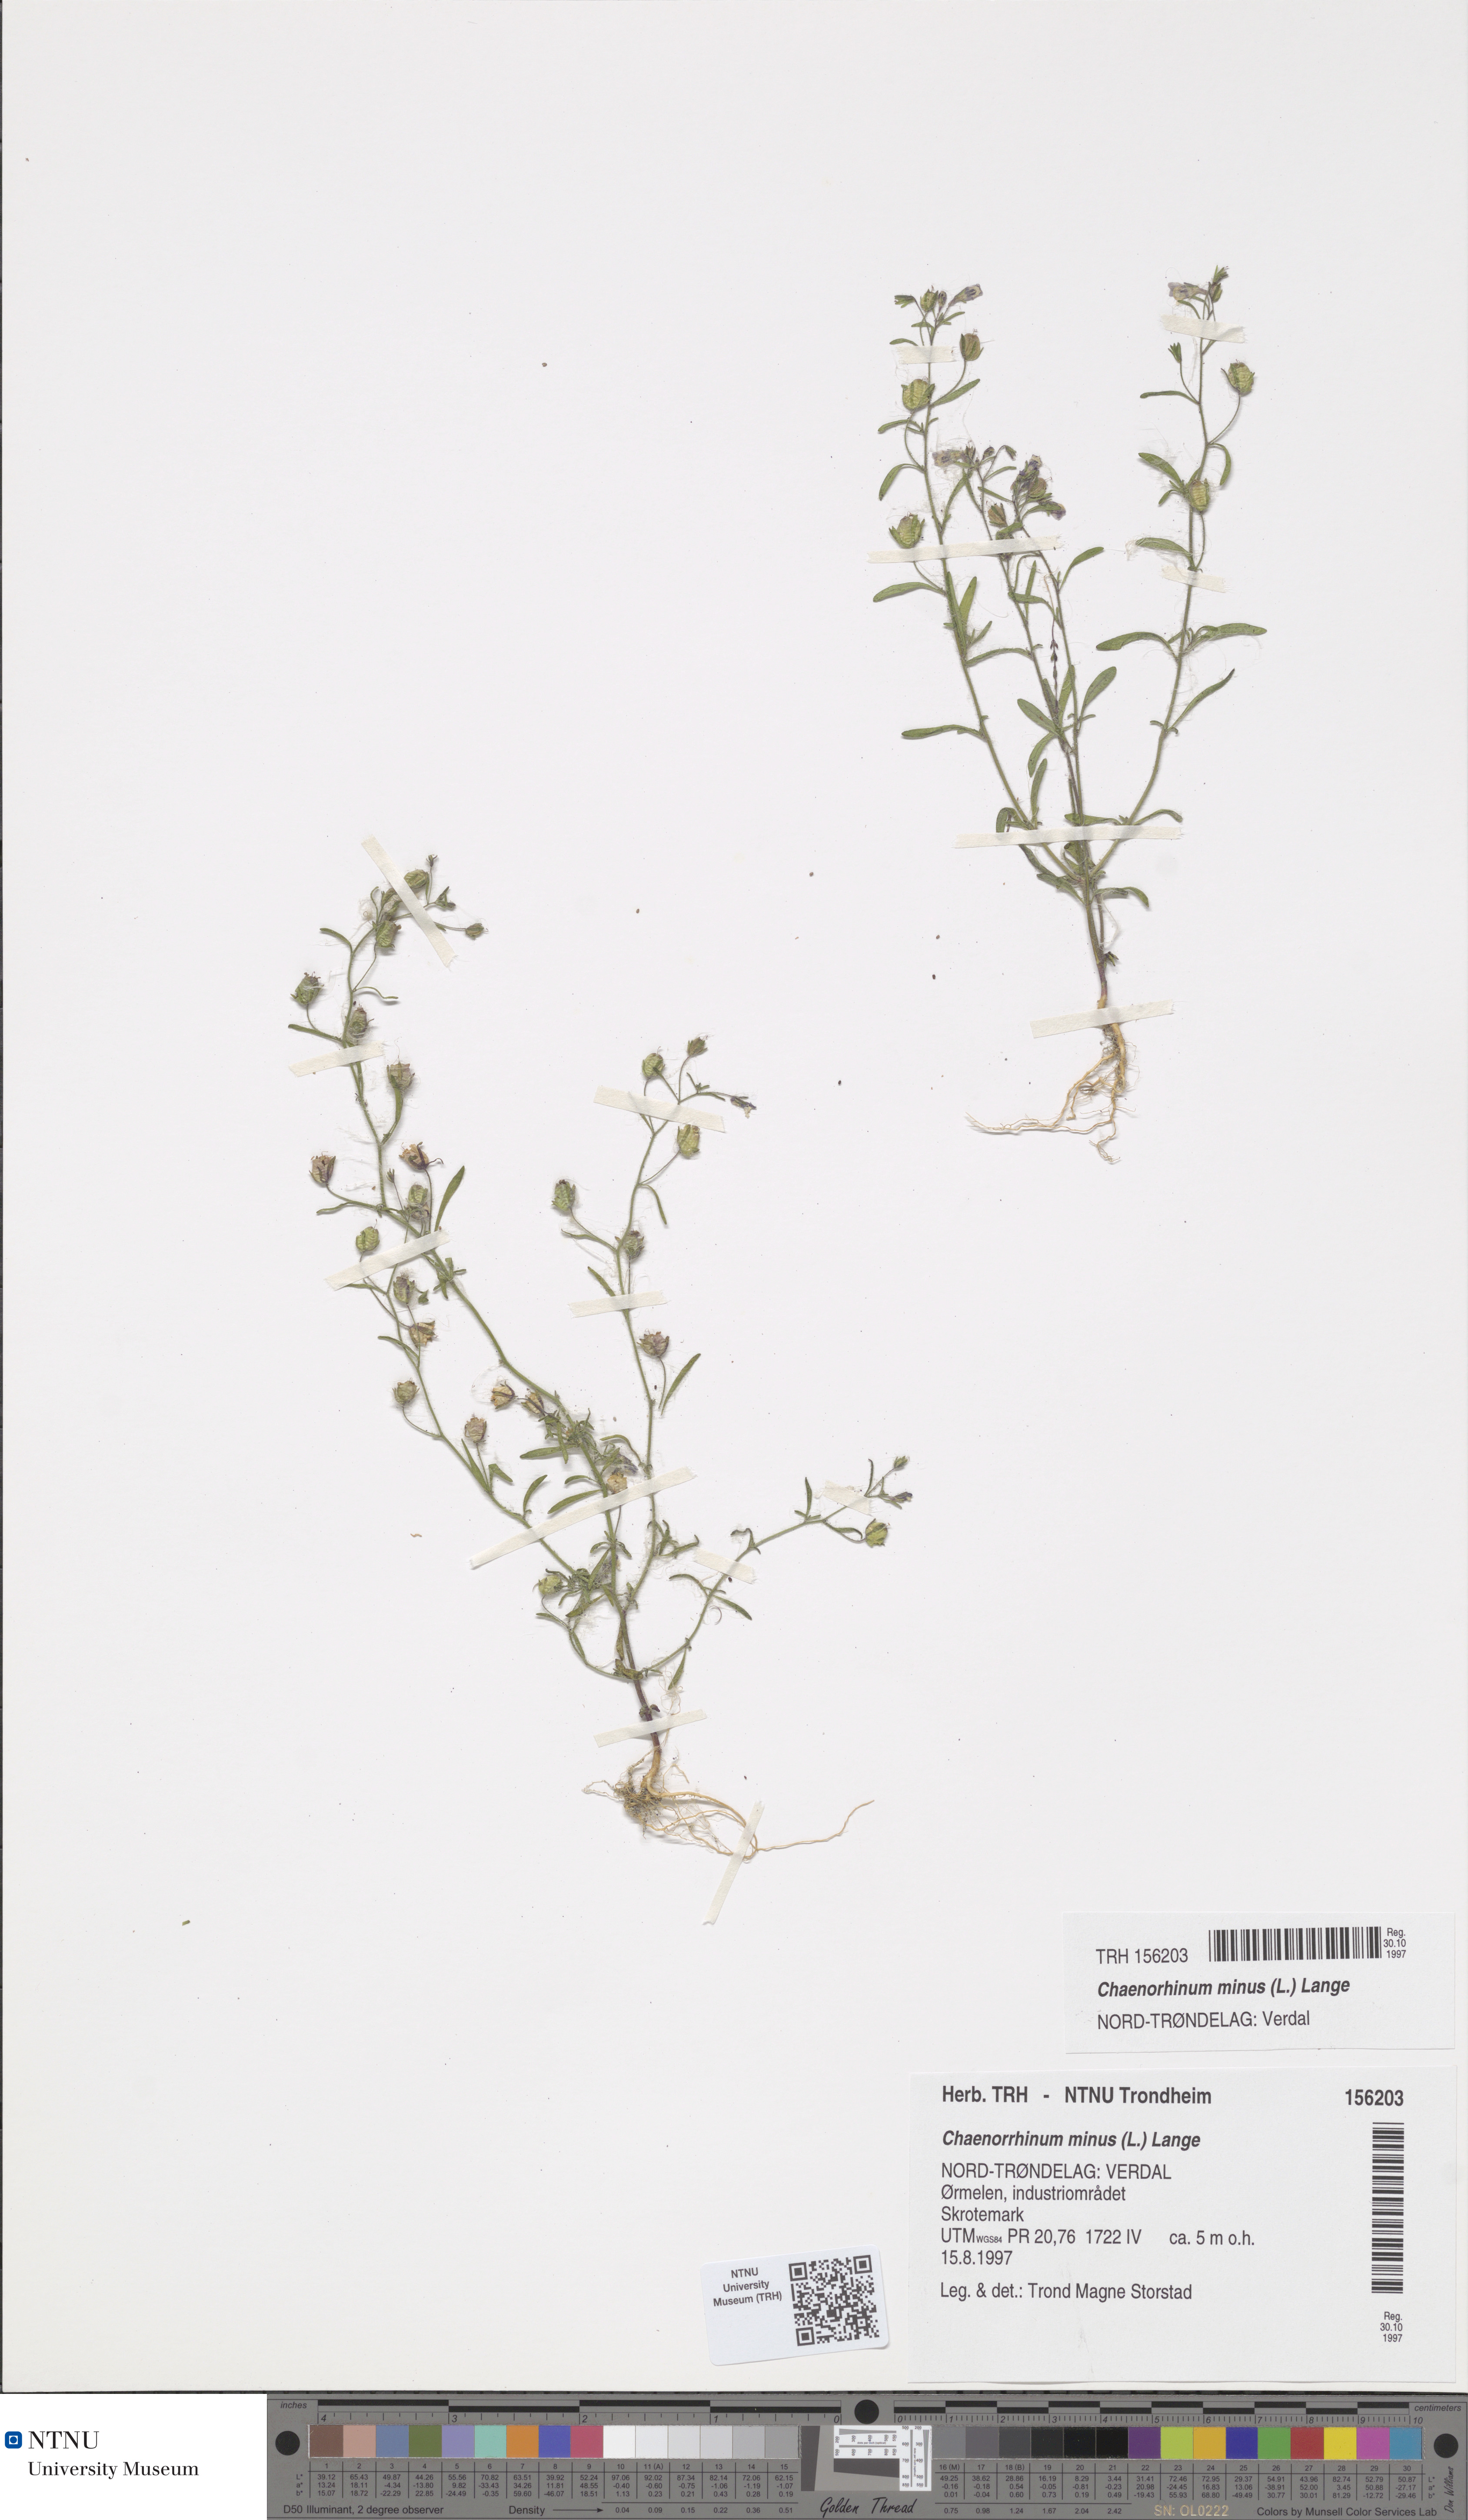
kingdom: Plantae
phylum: Tracheophyta
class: Magnoliopsida
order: Lamiales
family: Plantaginaceae
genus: Chaenorhinum
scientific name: Chaenorhinum minus
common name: Dwarf snapdragon
